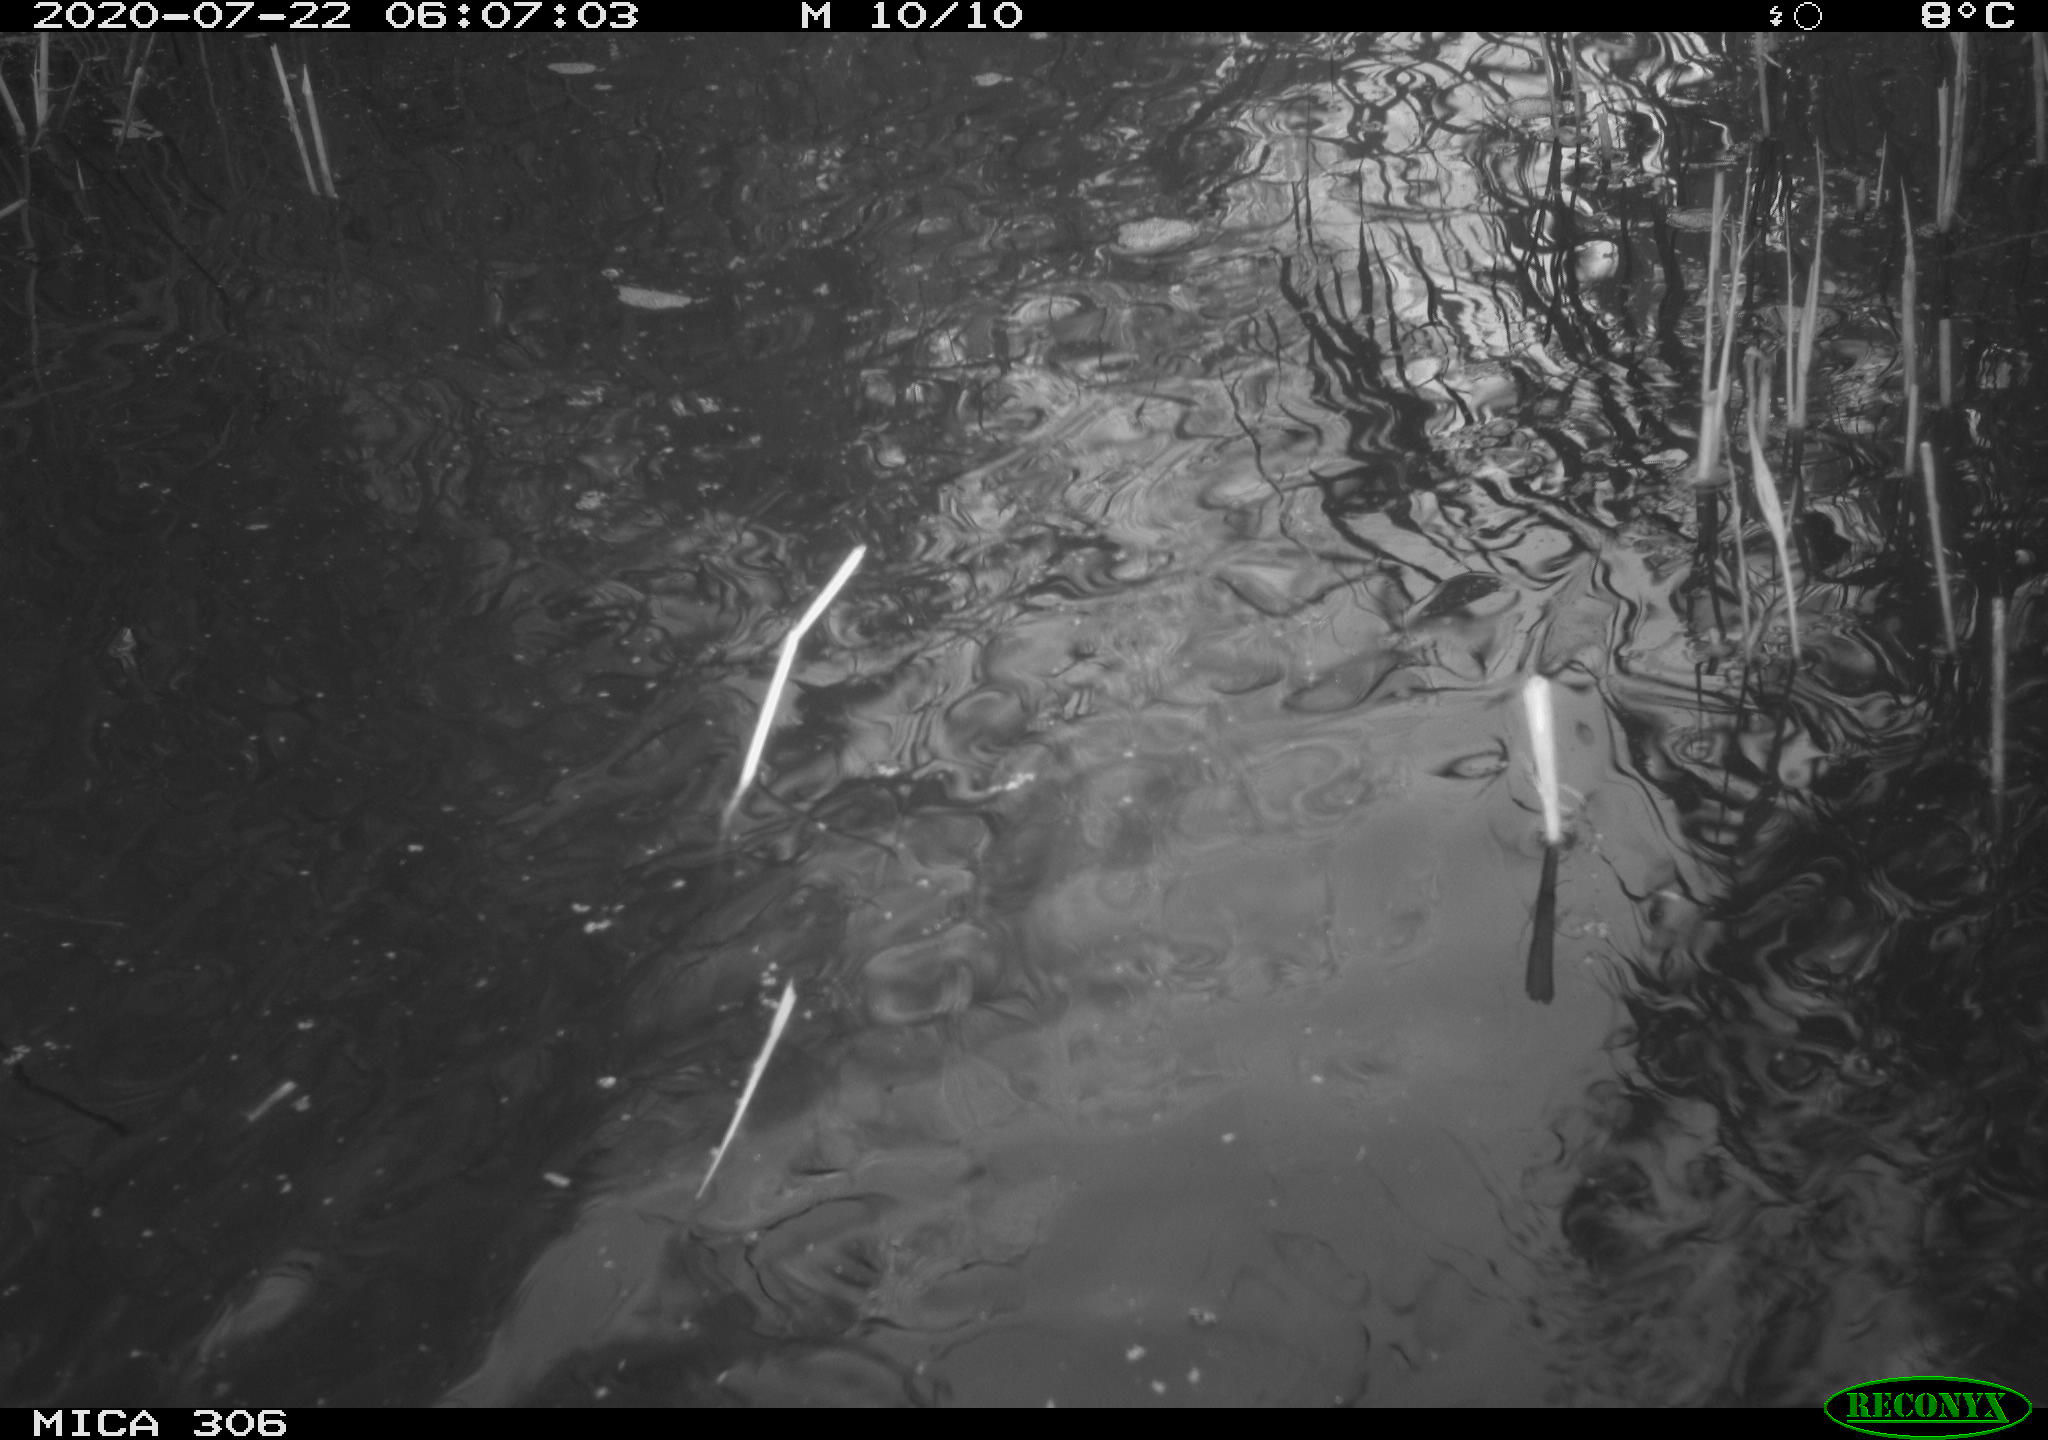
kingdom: Animalia
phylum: Chordata
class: Aves
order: Anseriformes
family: Anatidae
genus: Anas
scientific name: Anas platyrhynchos
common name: Mallard
